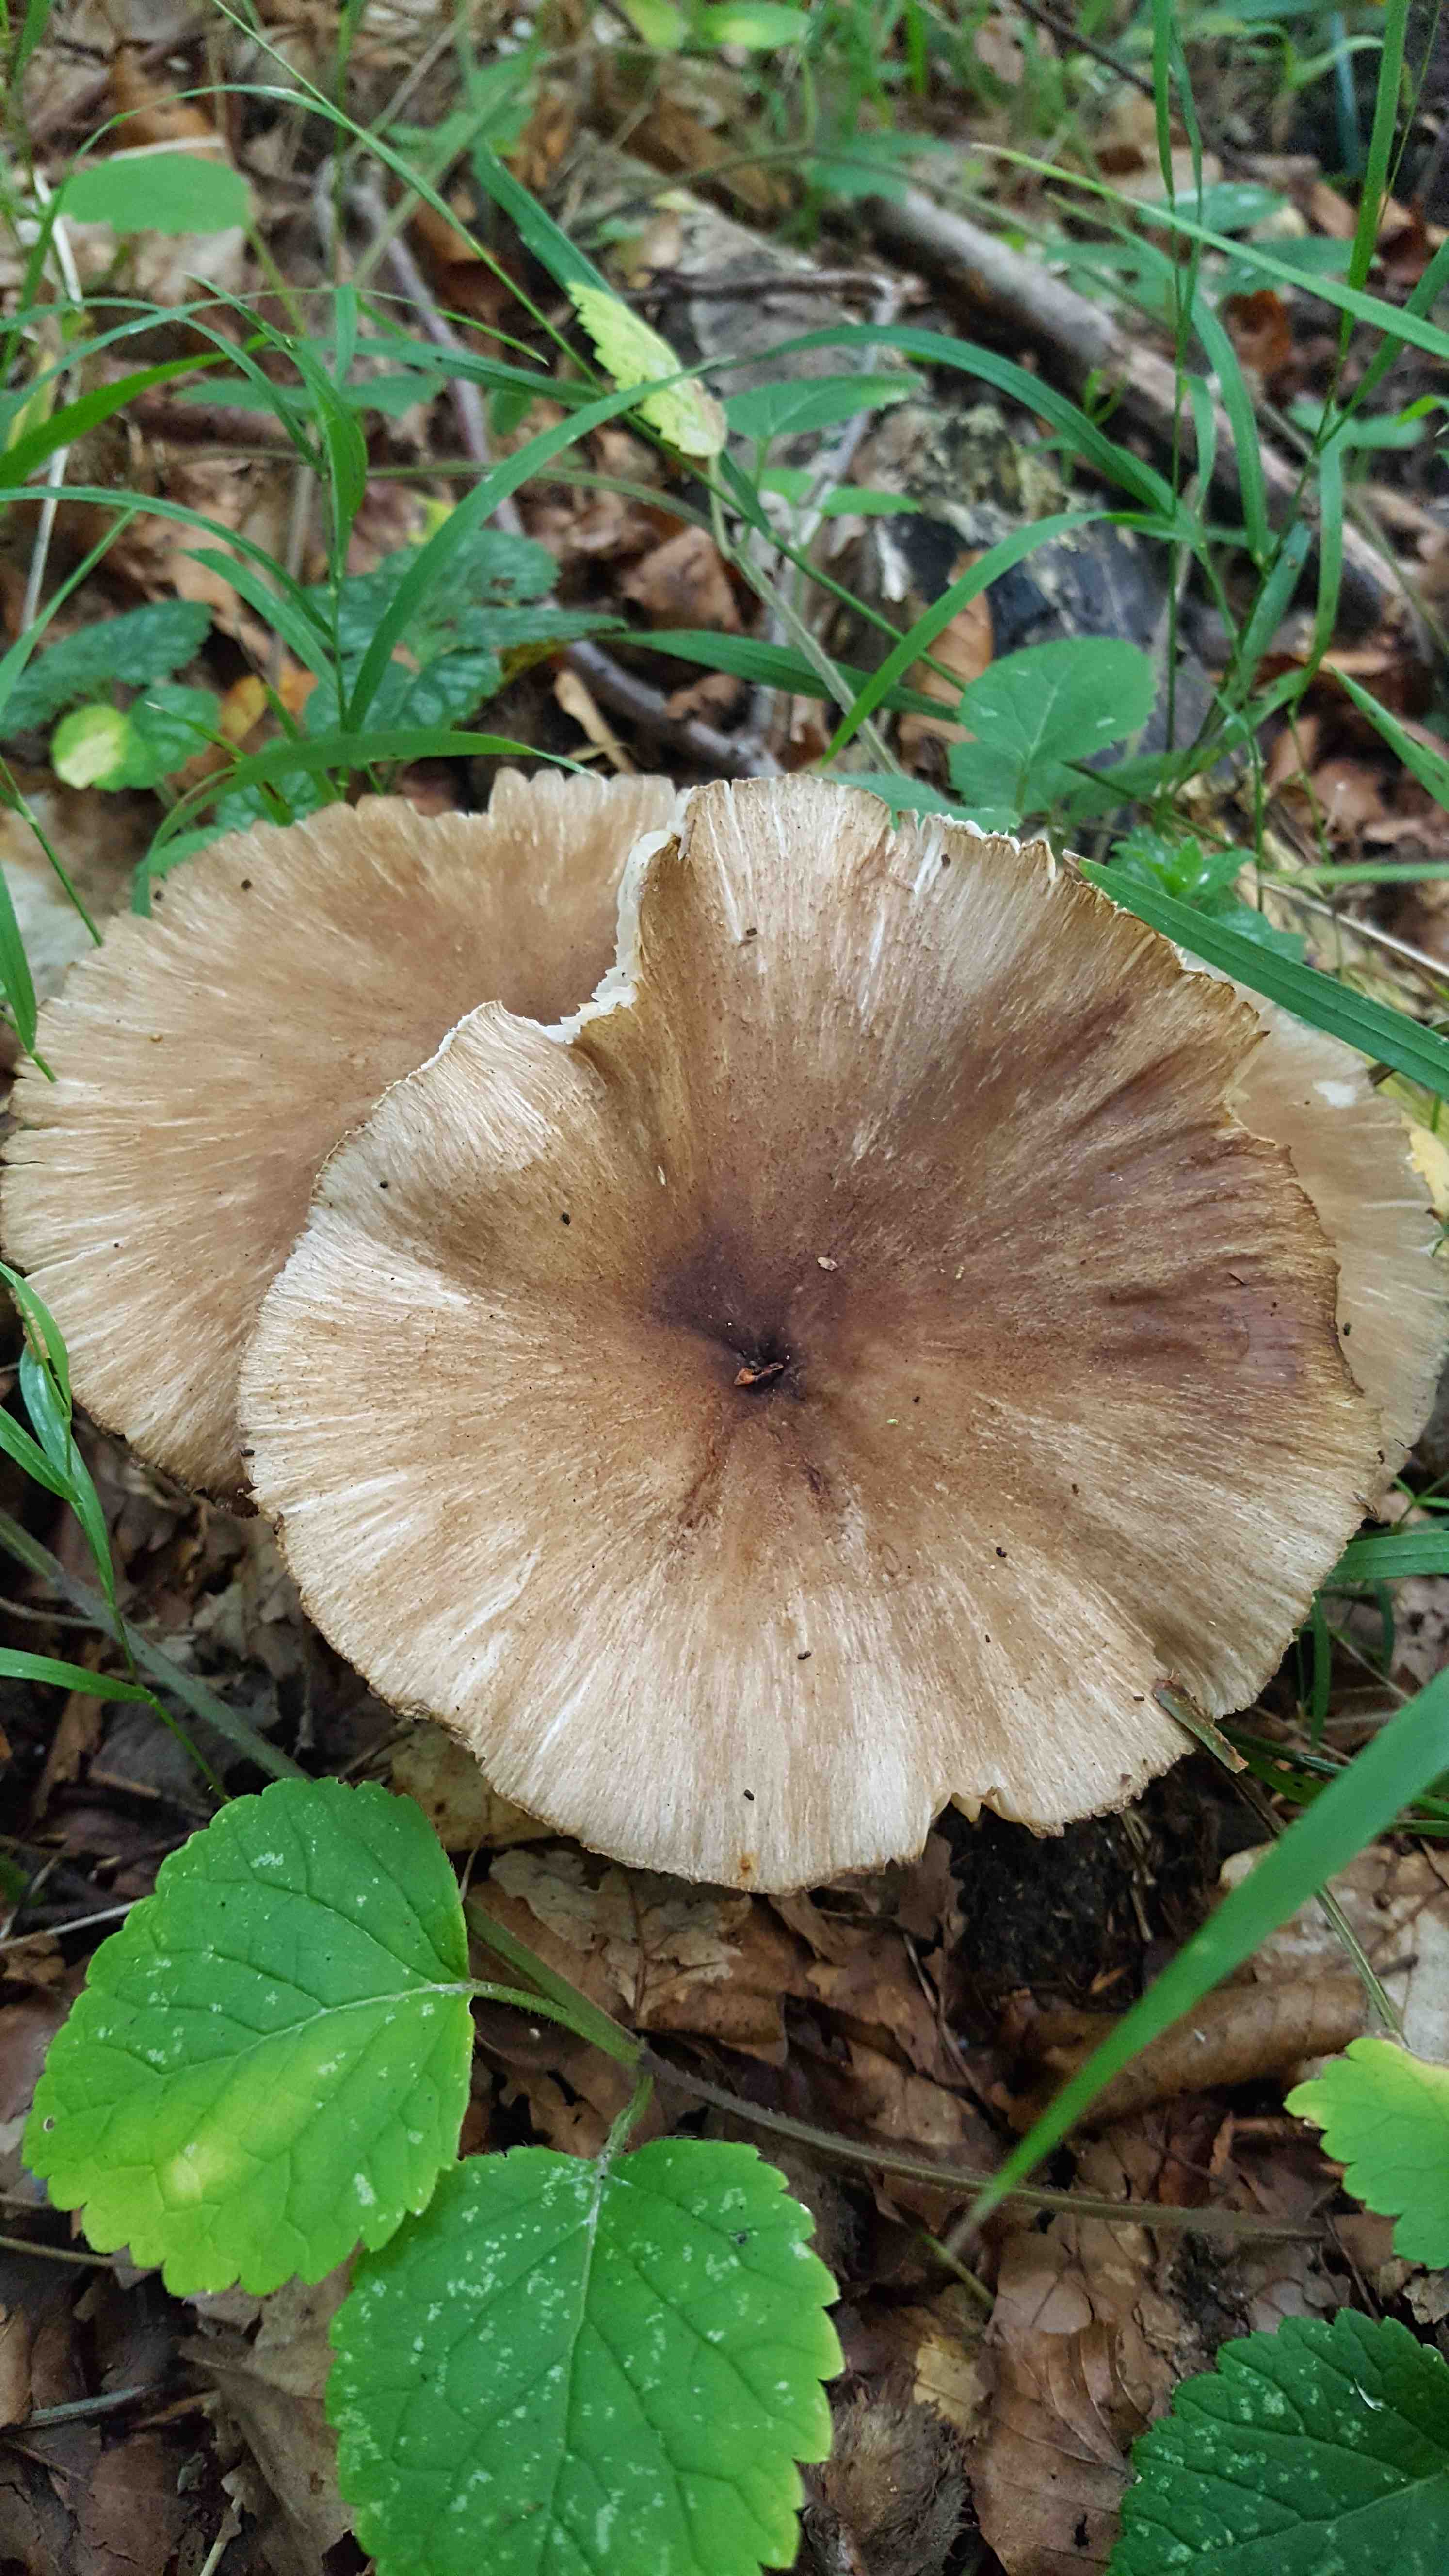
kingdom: Fungi
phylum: Basidiomycota
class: Agaricomycetes
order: Agaricales
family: Tricholomataceae
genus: Megacollybia
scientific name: Megacollybia platyphylla
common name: bredbladet væbnerhat
